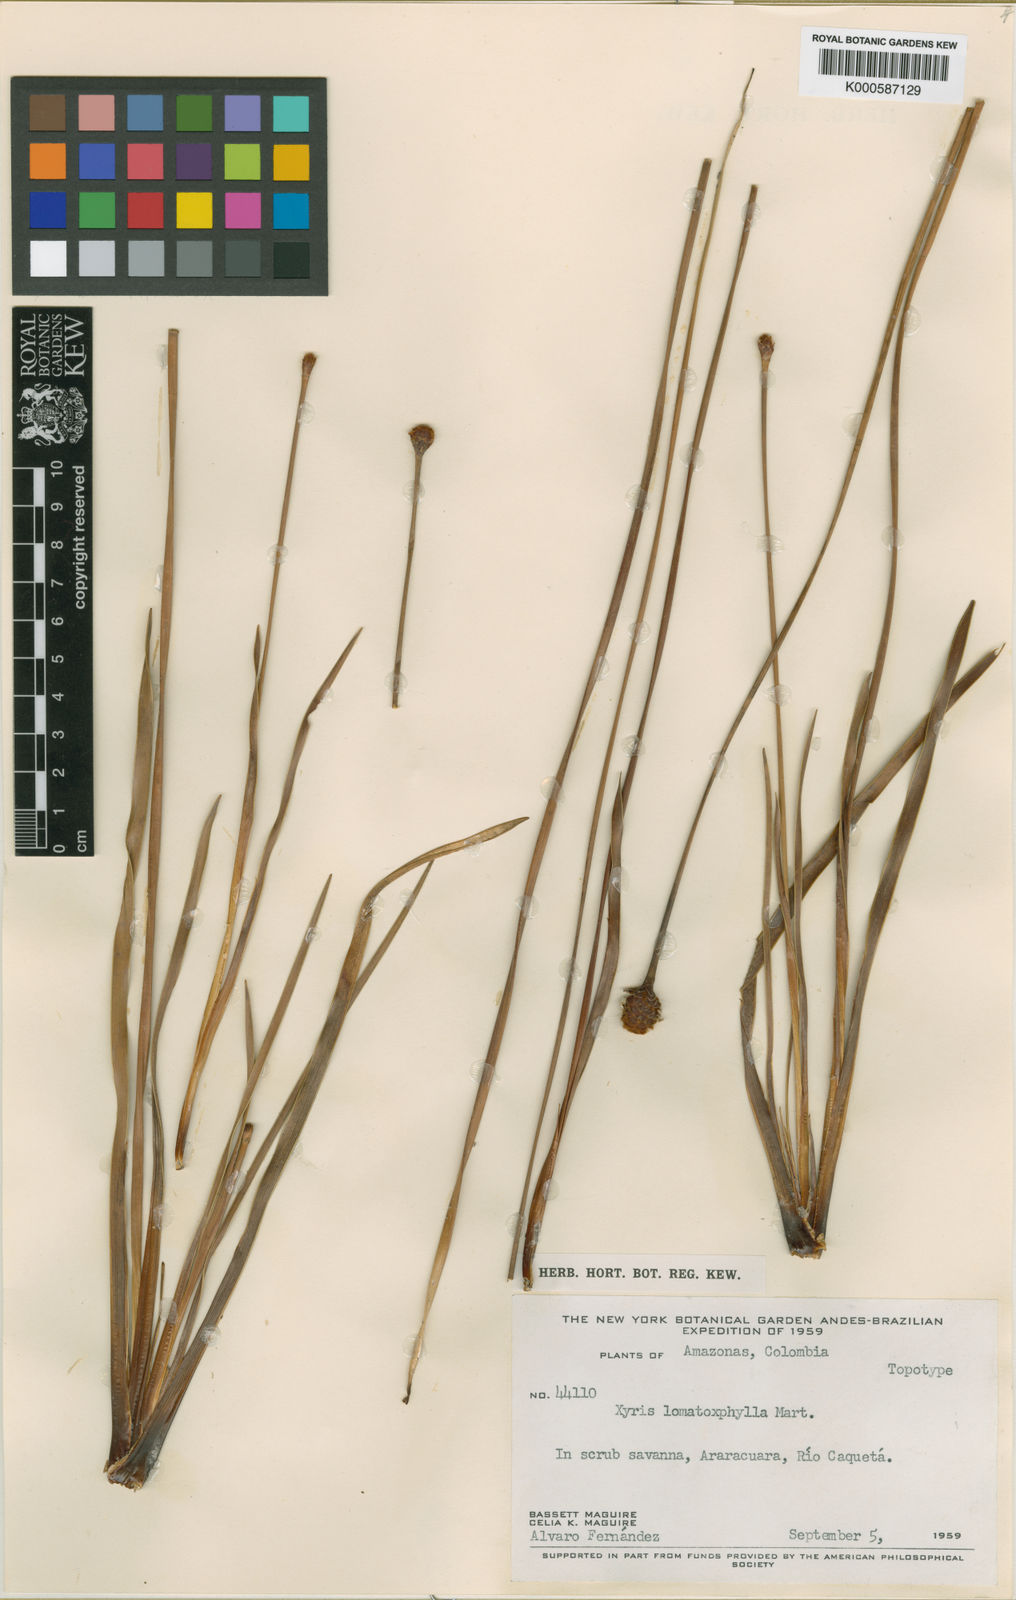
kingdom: Plantae
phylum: Tracheophyta
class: Liliopsida
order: Poales
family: Xyridaceae
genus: Xyris
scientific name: Xyris lomatophylla
